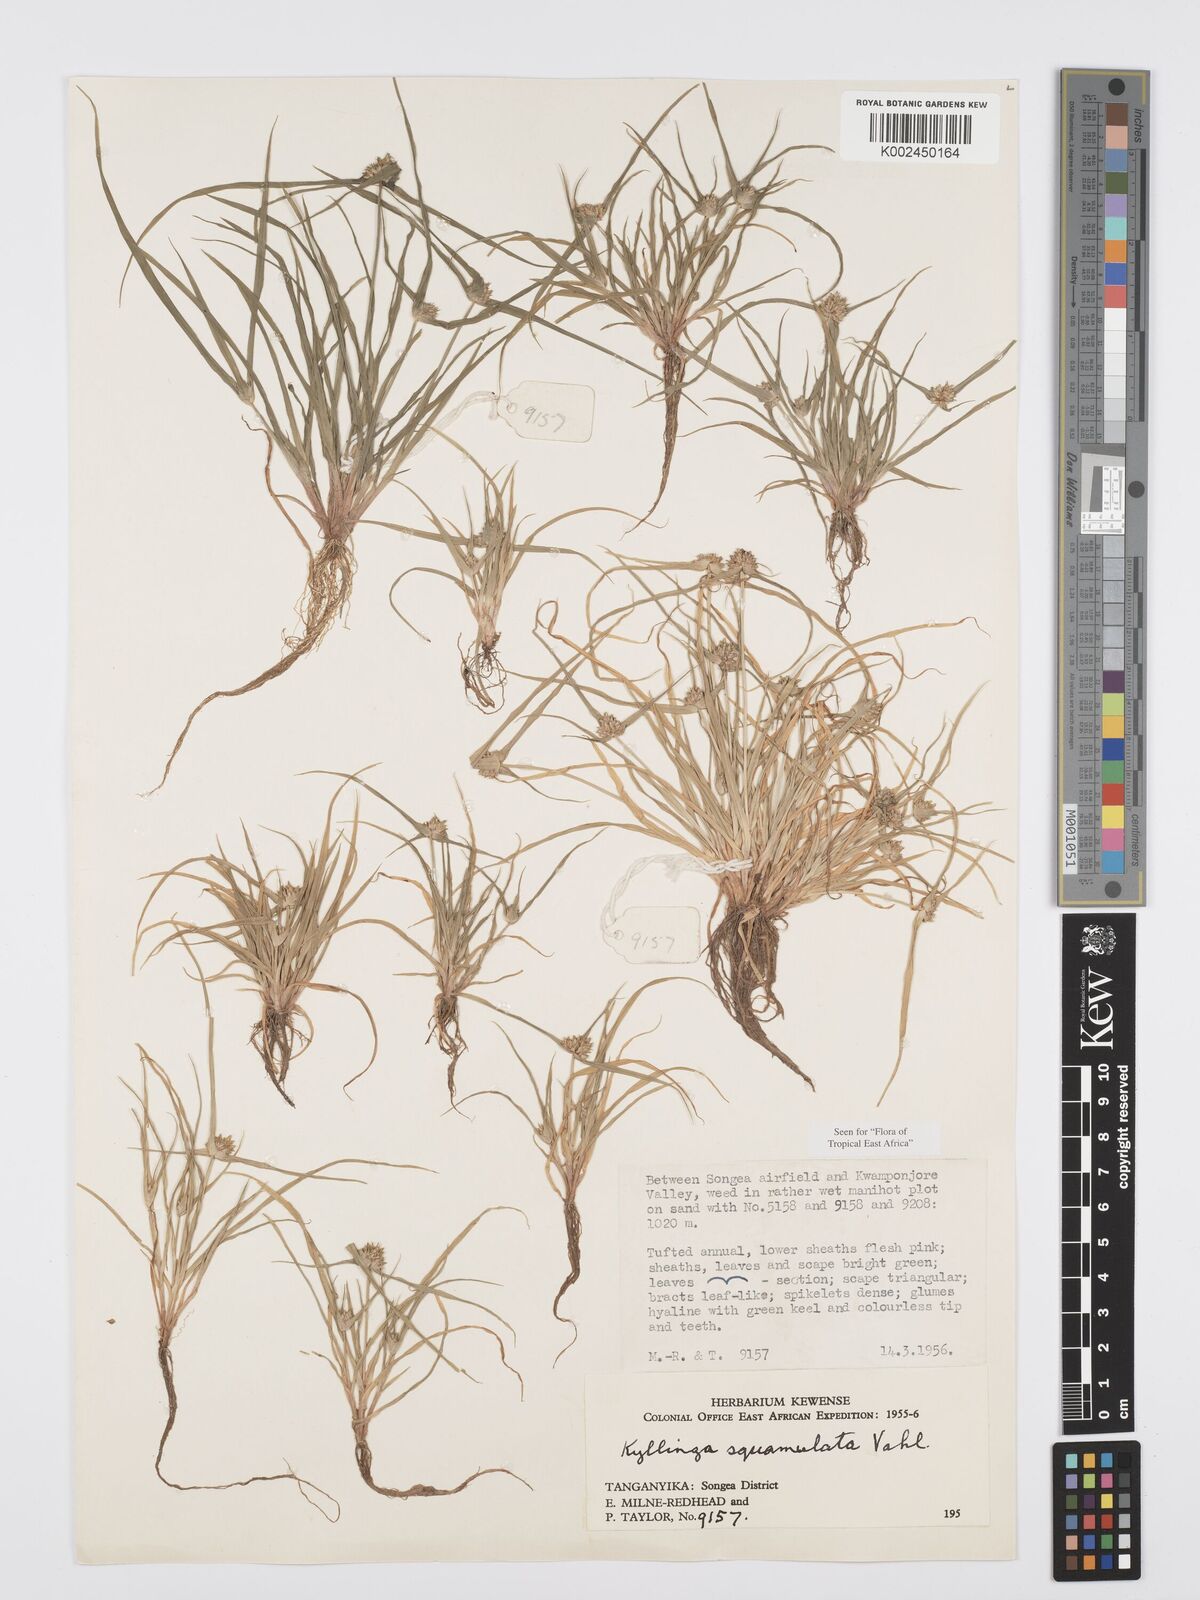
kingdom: Plantae
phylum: Tracheophyta
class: Liliopsida
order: Poales
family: Cyperaceae
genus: Cyperus
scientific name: Cyperus distans
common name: Slender cyperus
